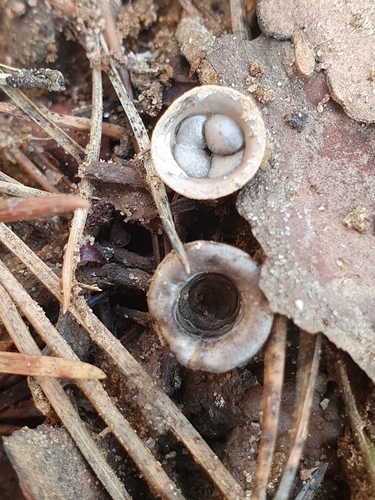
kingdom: Fungi
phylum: Basidiomycota
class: Agaricomycetes
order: Agaricales
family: Agaricaceae
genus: Cyathus
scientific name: Cyathus olla
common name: Field bird's nest
